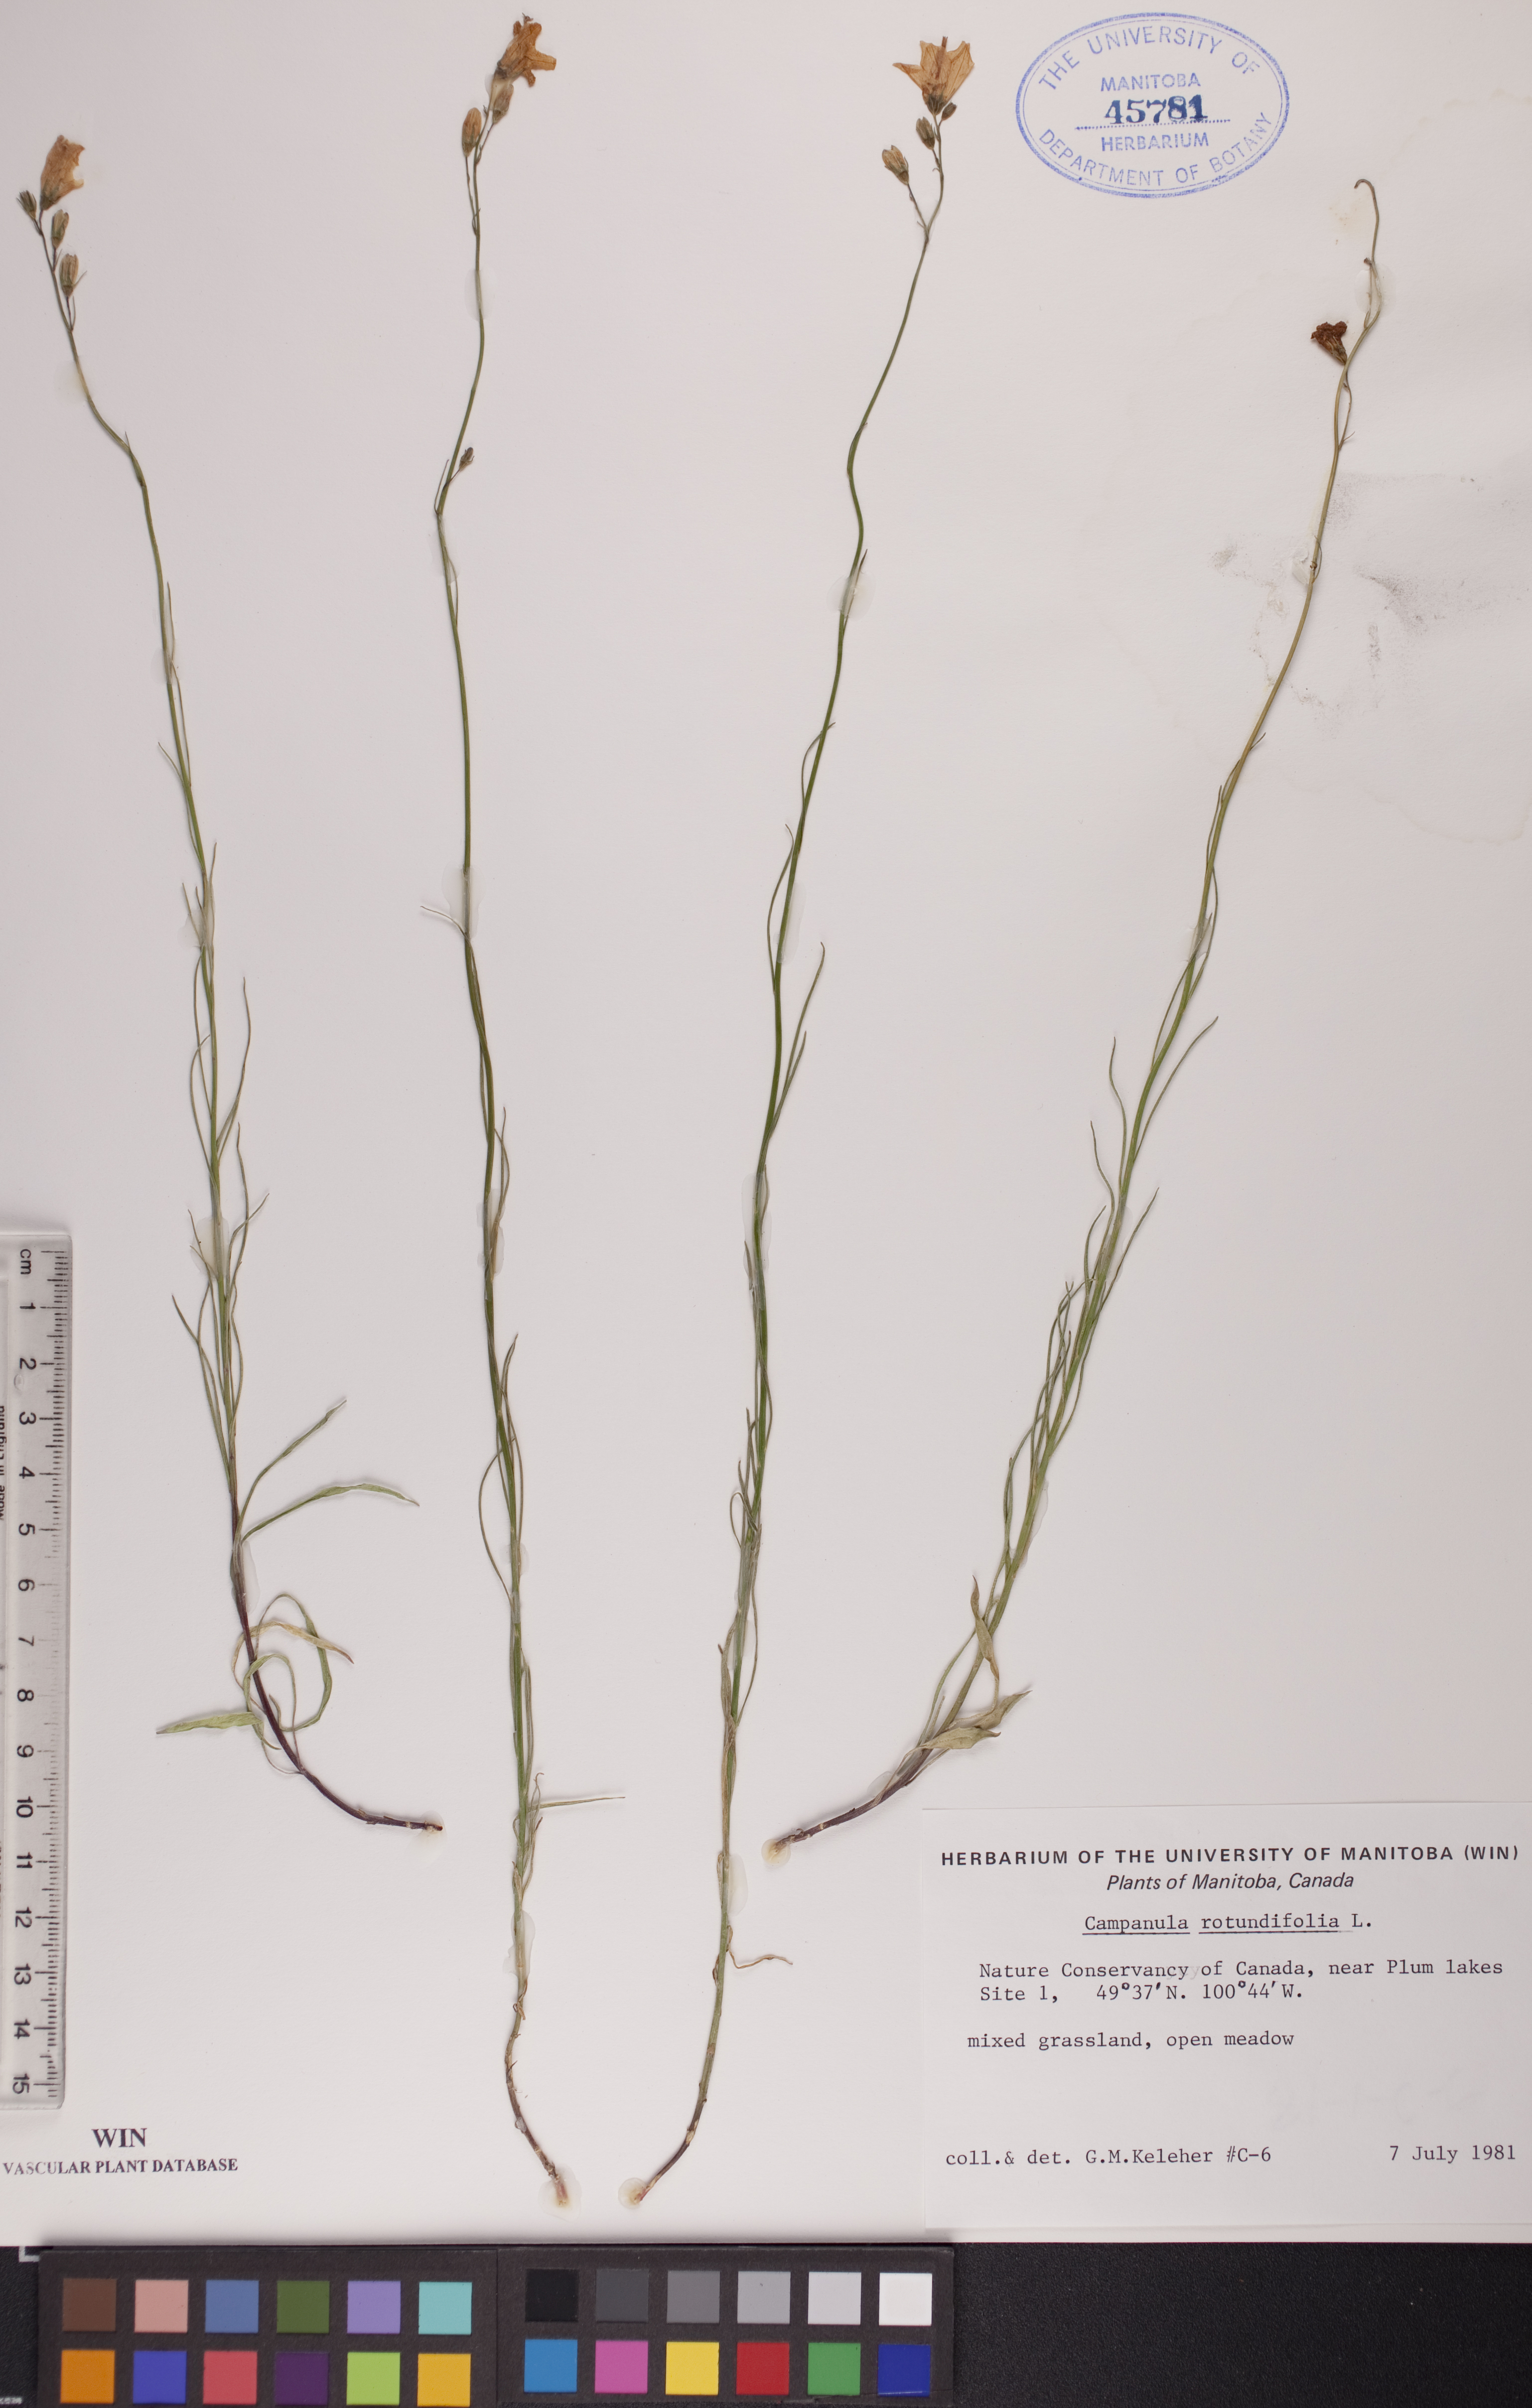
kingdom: Plantae
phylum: Tracheophyta
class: Magnoliopsida
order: Asterales
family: Campanulaceae
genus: Campanula
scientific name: Campanula rotundifolia
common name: Harebell
